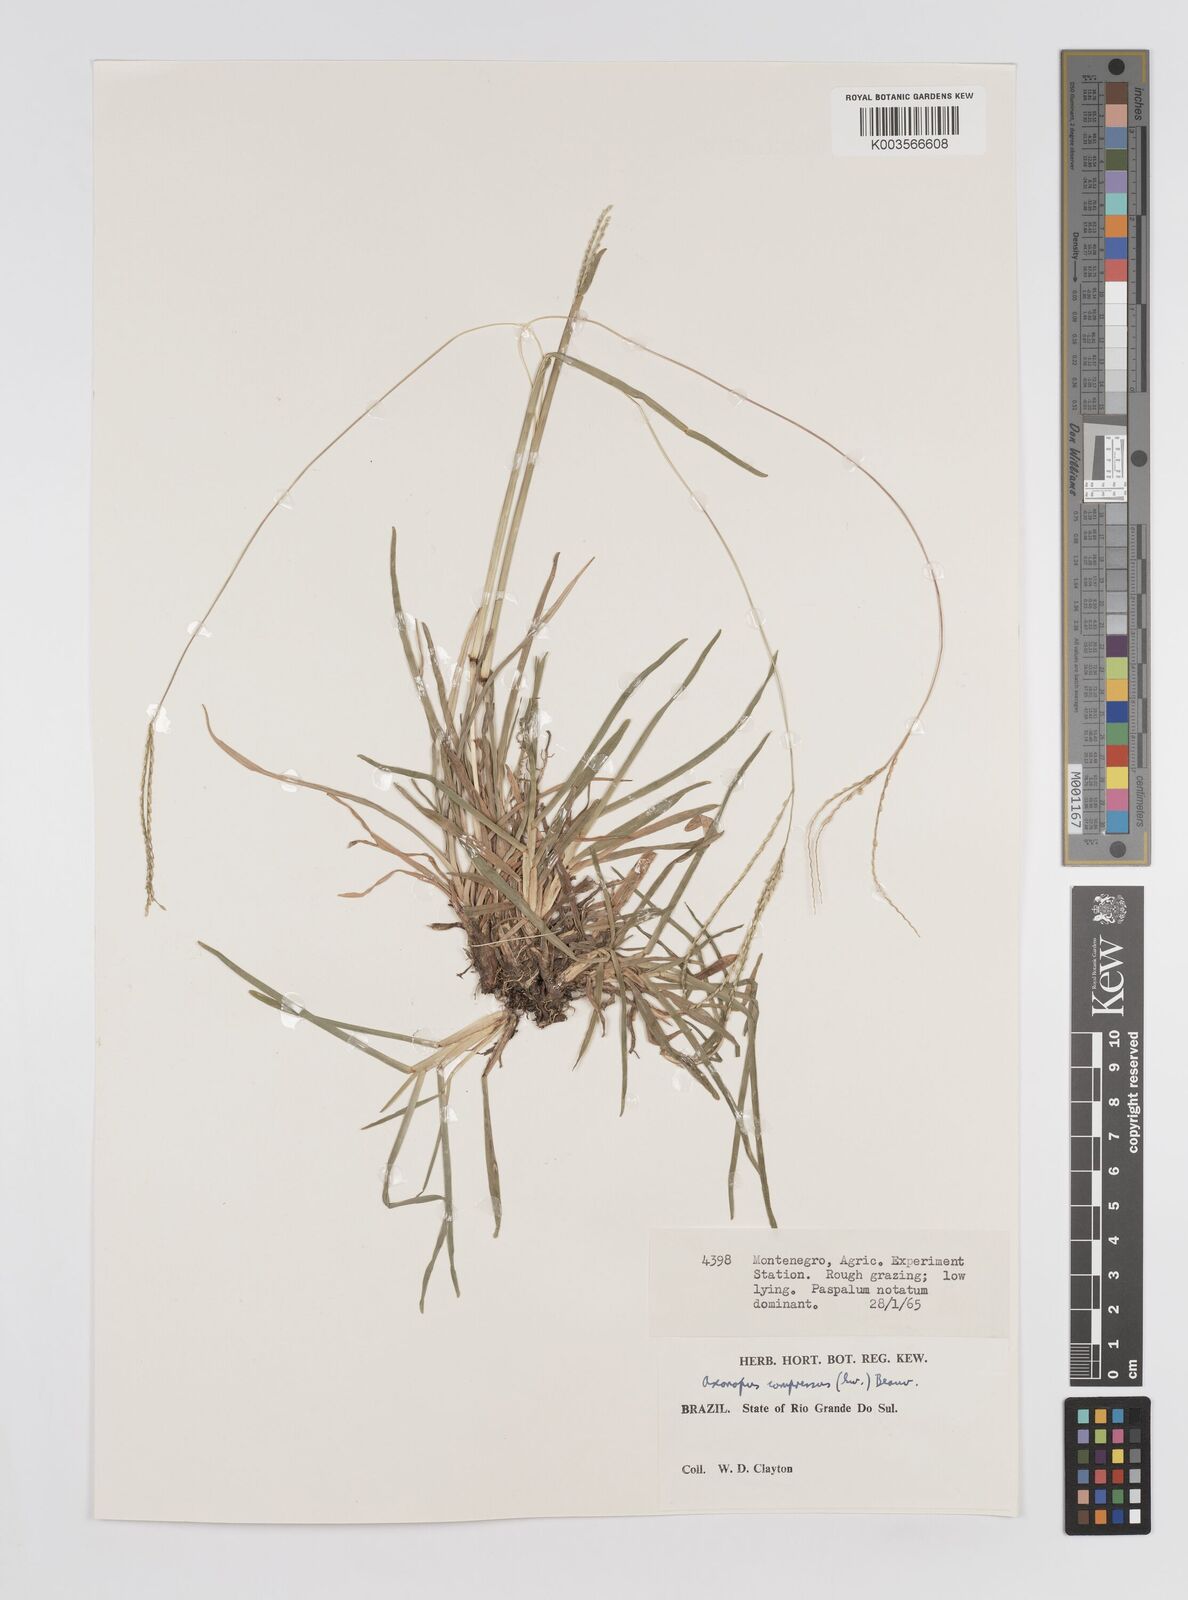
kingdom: Plantae
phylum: Tracheophyta
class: Liliopsida
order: Poales
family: Poaceae
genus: Axonopus
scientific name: Axonopus compressus
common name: American carpet grass
